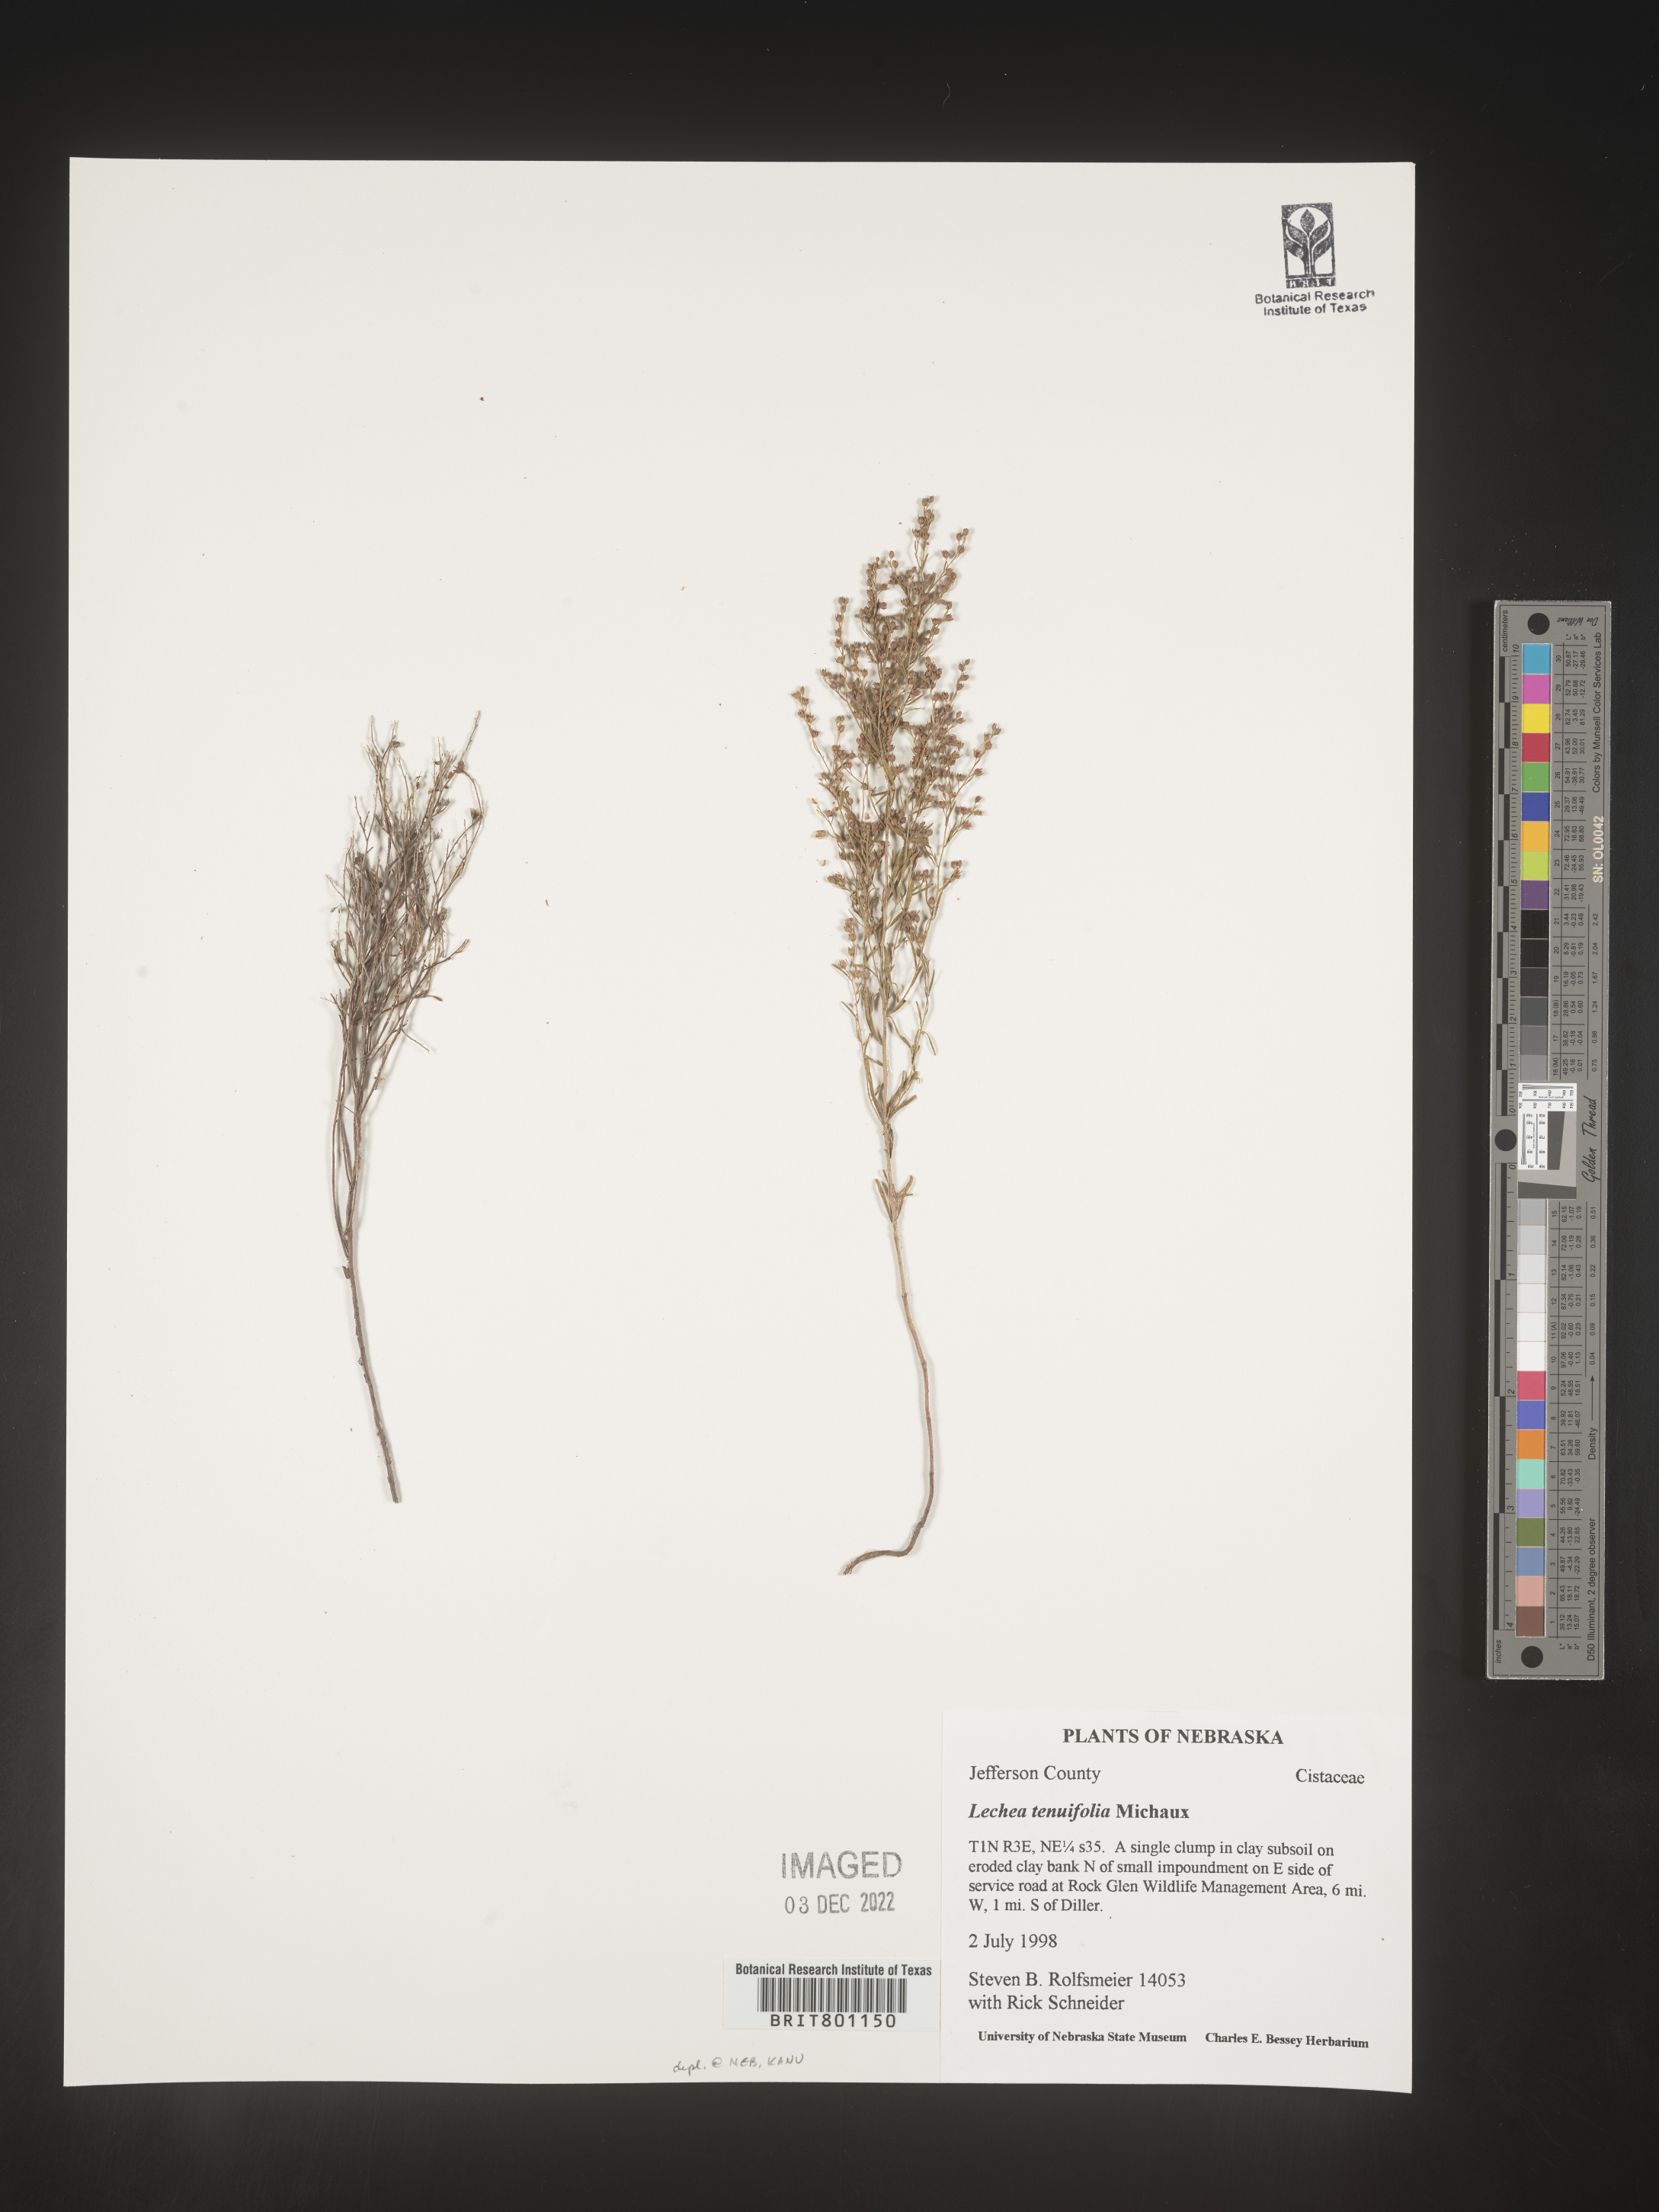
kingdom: Plantae
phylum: Tracheophyta
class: Magnoliopsida
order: Malvales
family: Cistaceae
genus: Lechea
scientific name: Lechea tenuifolia
